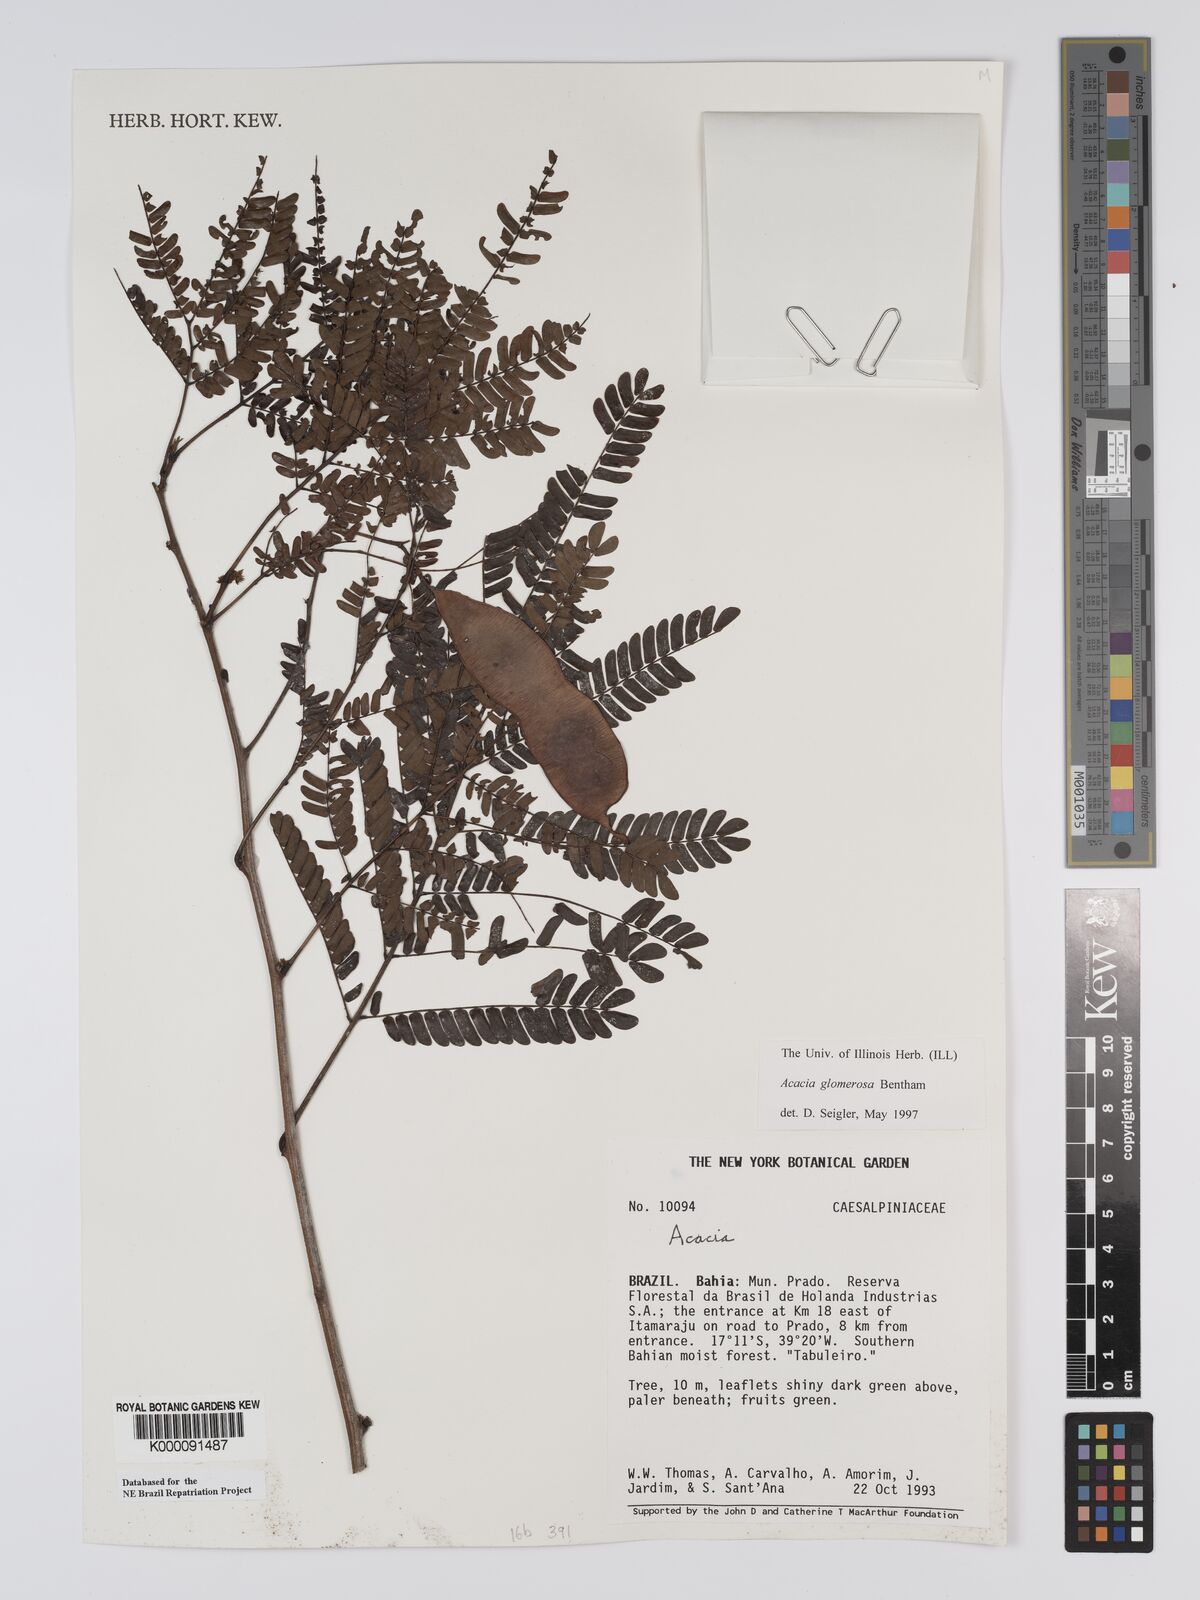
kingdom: Plantae
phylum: Tracheophyta
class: Magnoliopsida
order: Fabales
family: Fabaceae
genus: Senegalia
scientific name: Senegalia polyphylla
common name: White-tamarind
